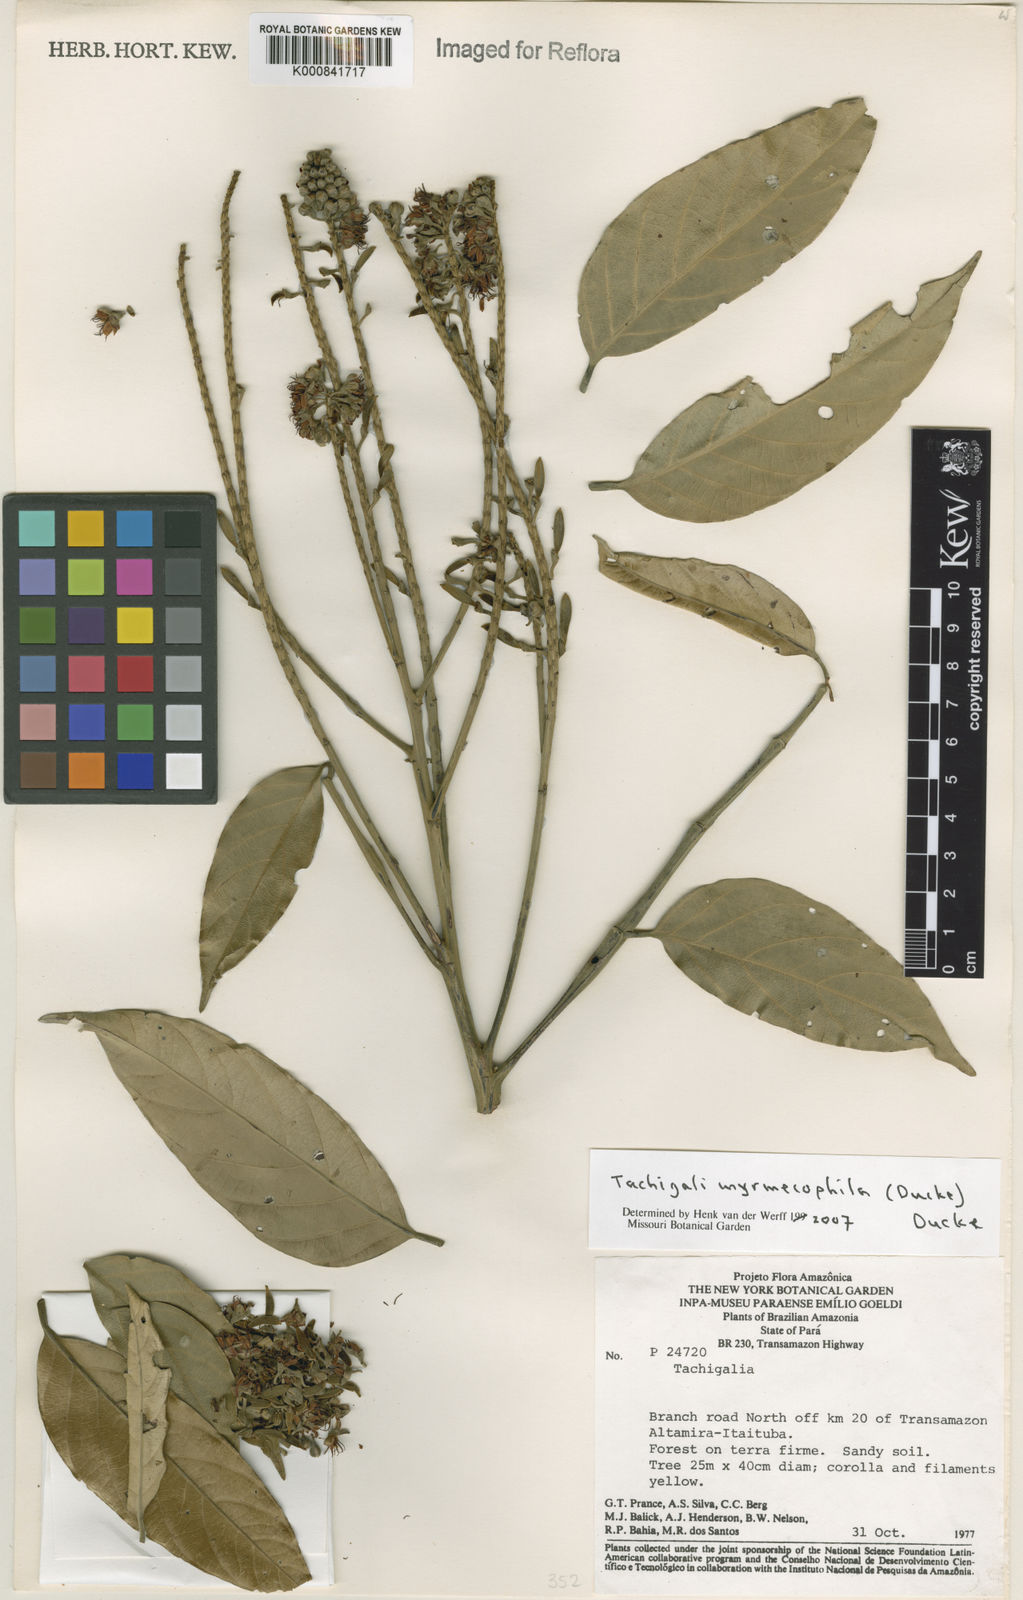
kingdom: Plantae
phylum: Tracheophyta
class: Magnoliopsida
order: Fabales
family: Fabaceae
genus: Tachigali
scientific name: Tachigali glauca
